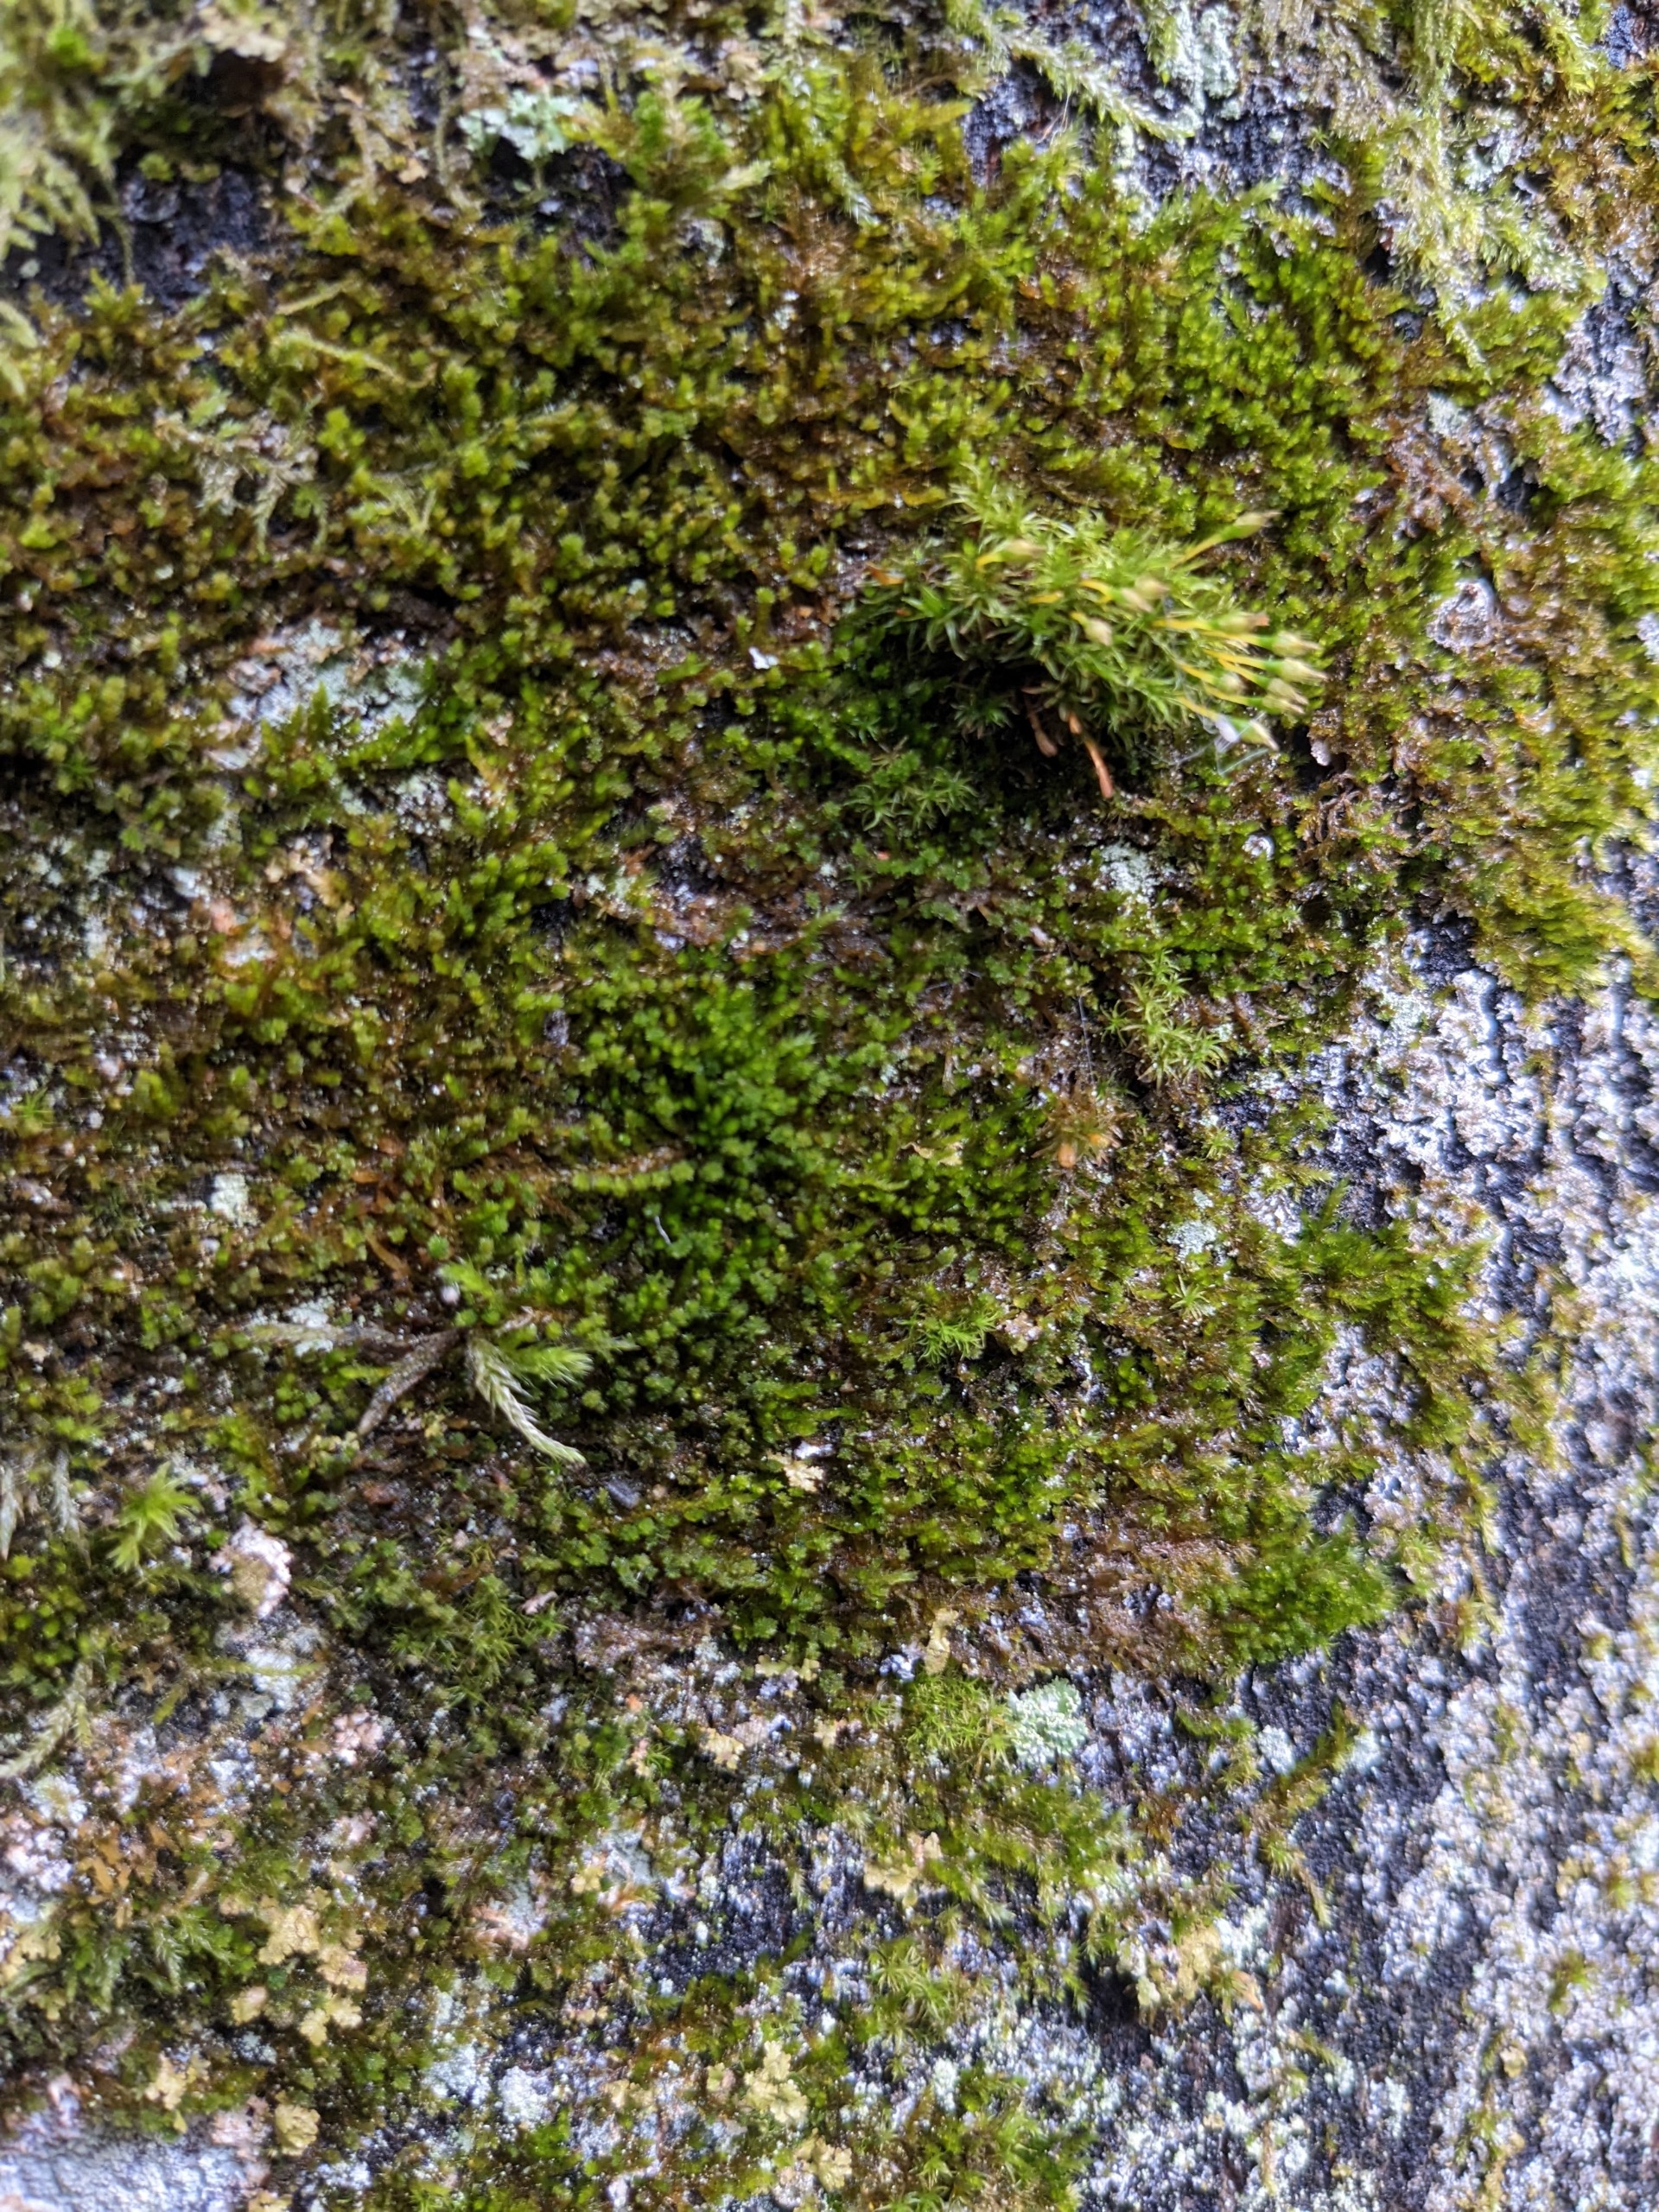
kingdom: Plantae
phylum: Bryophyta
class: Bryopsida
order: Hypnales
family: Pylaisiadelphaceae
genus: Platygyrium
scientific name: Platygyrium repens
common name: Mørk yngleknop
